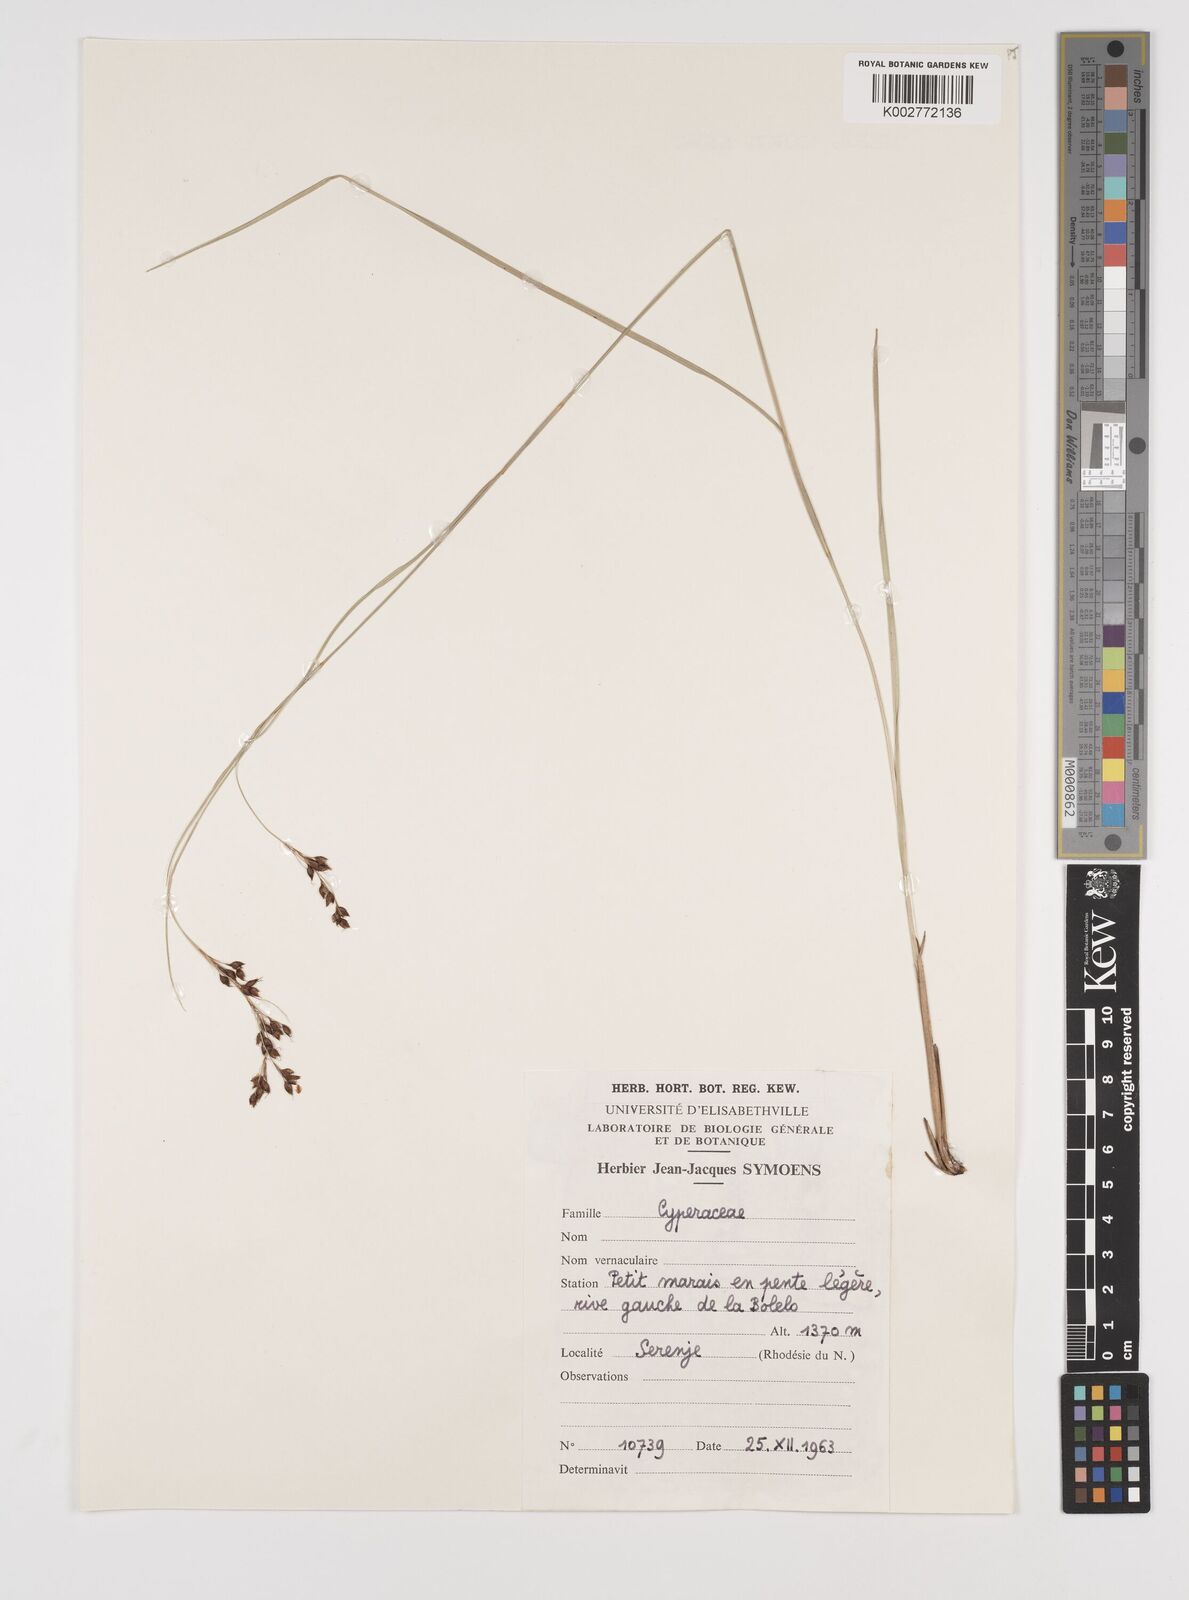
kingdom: Plantae
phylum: Tracheophyta
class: Liliopsida
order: Poales
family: Cyperaceae
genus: Rhynchospora
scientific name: Rhynchospora
